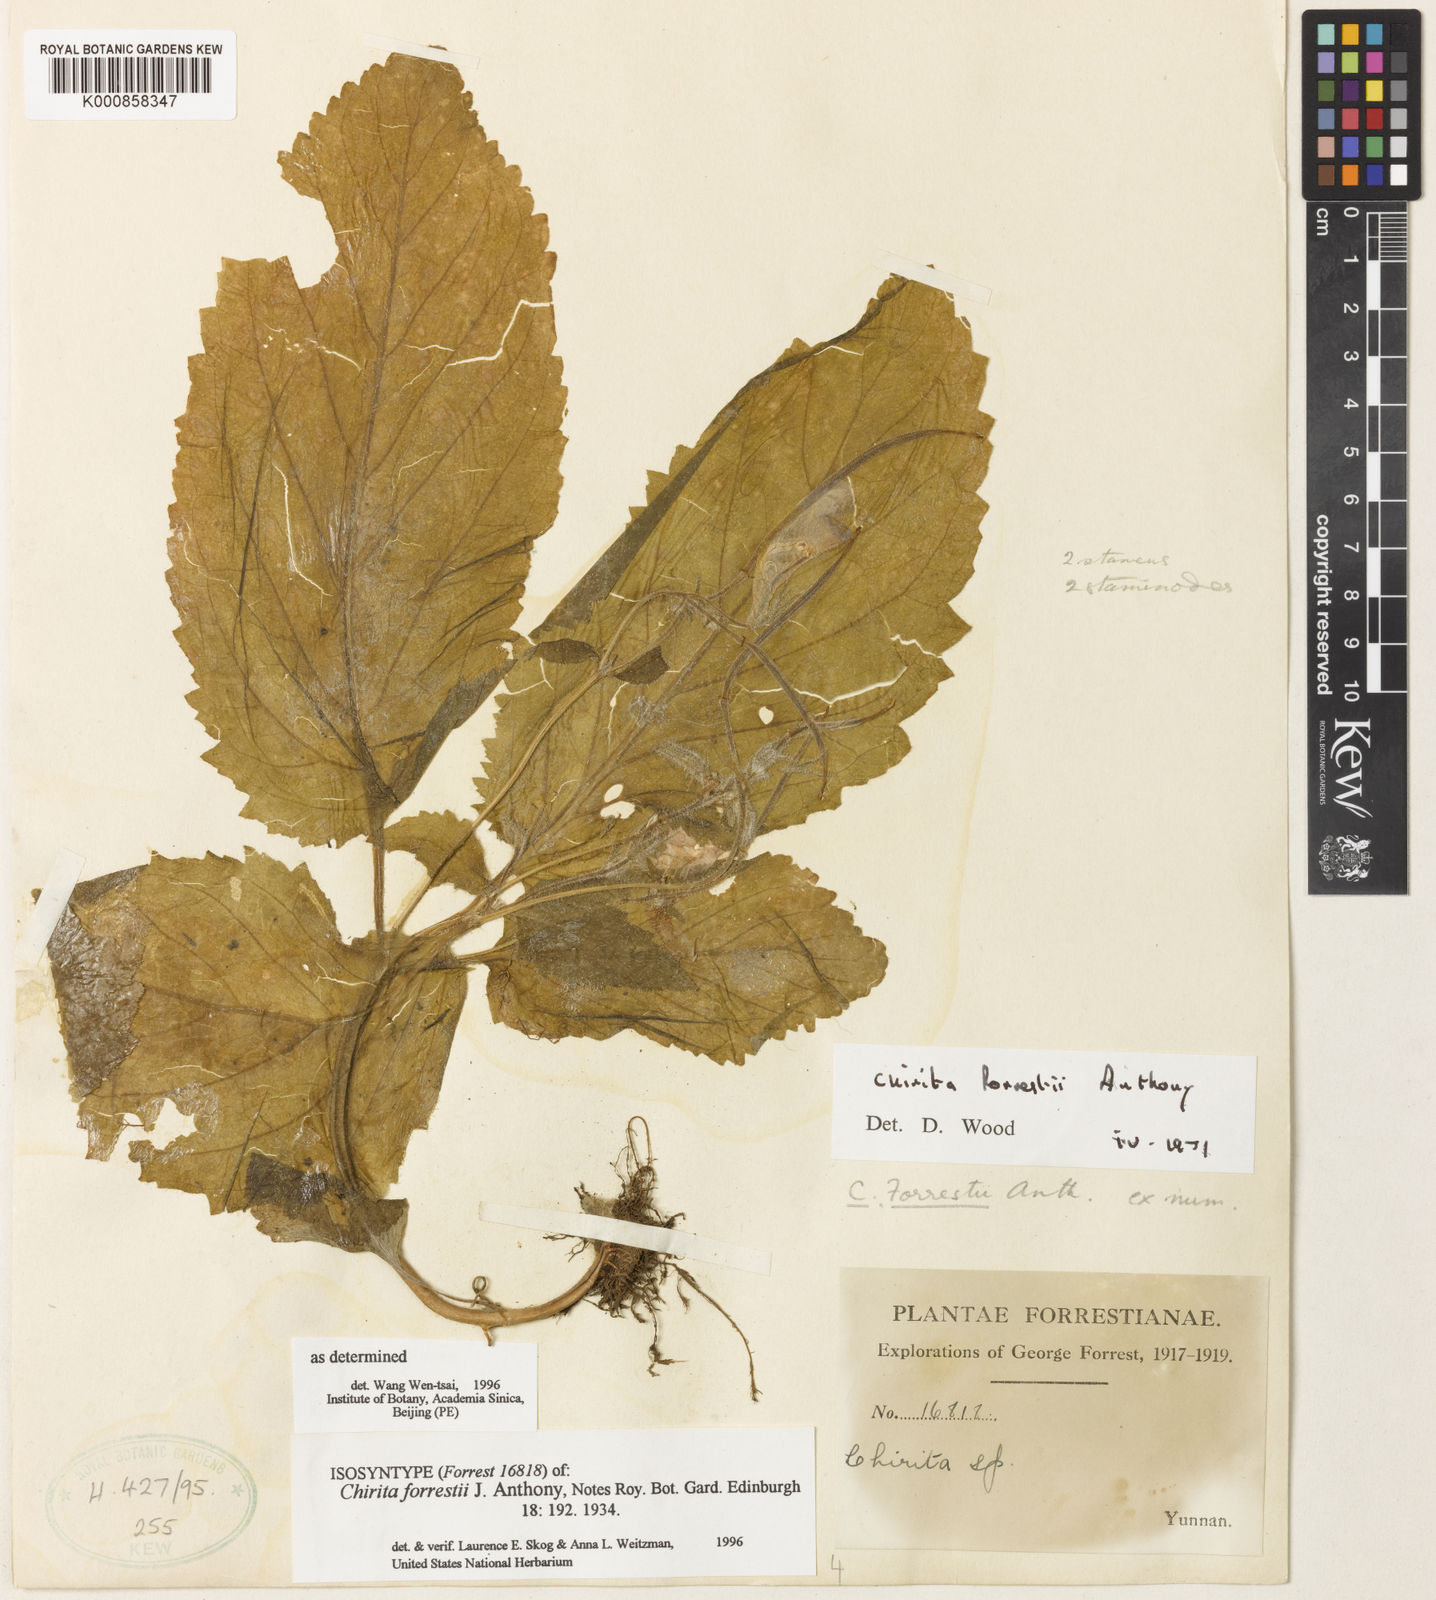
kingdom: Plantae
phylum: Tracheophyta
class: Magnoliopsida
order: Lamiales
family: Gesneriaceae
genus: Henckelia
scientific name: Henckelia forrestii
